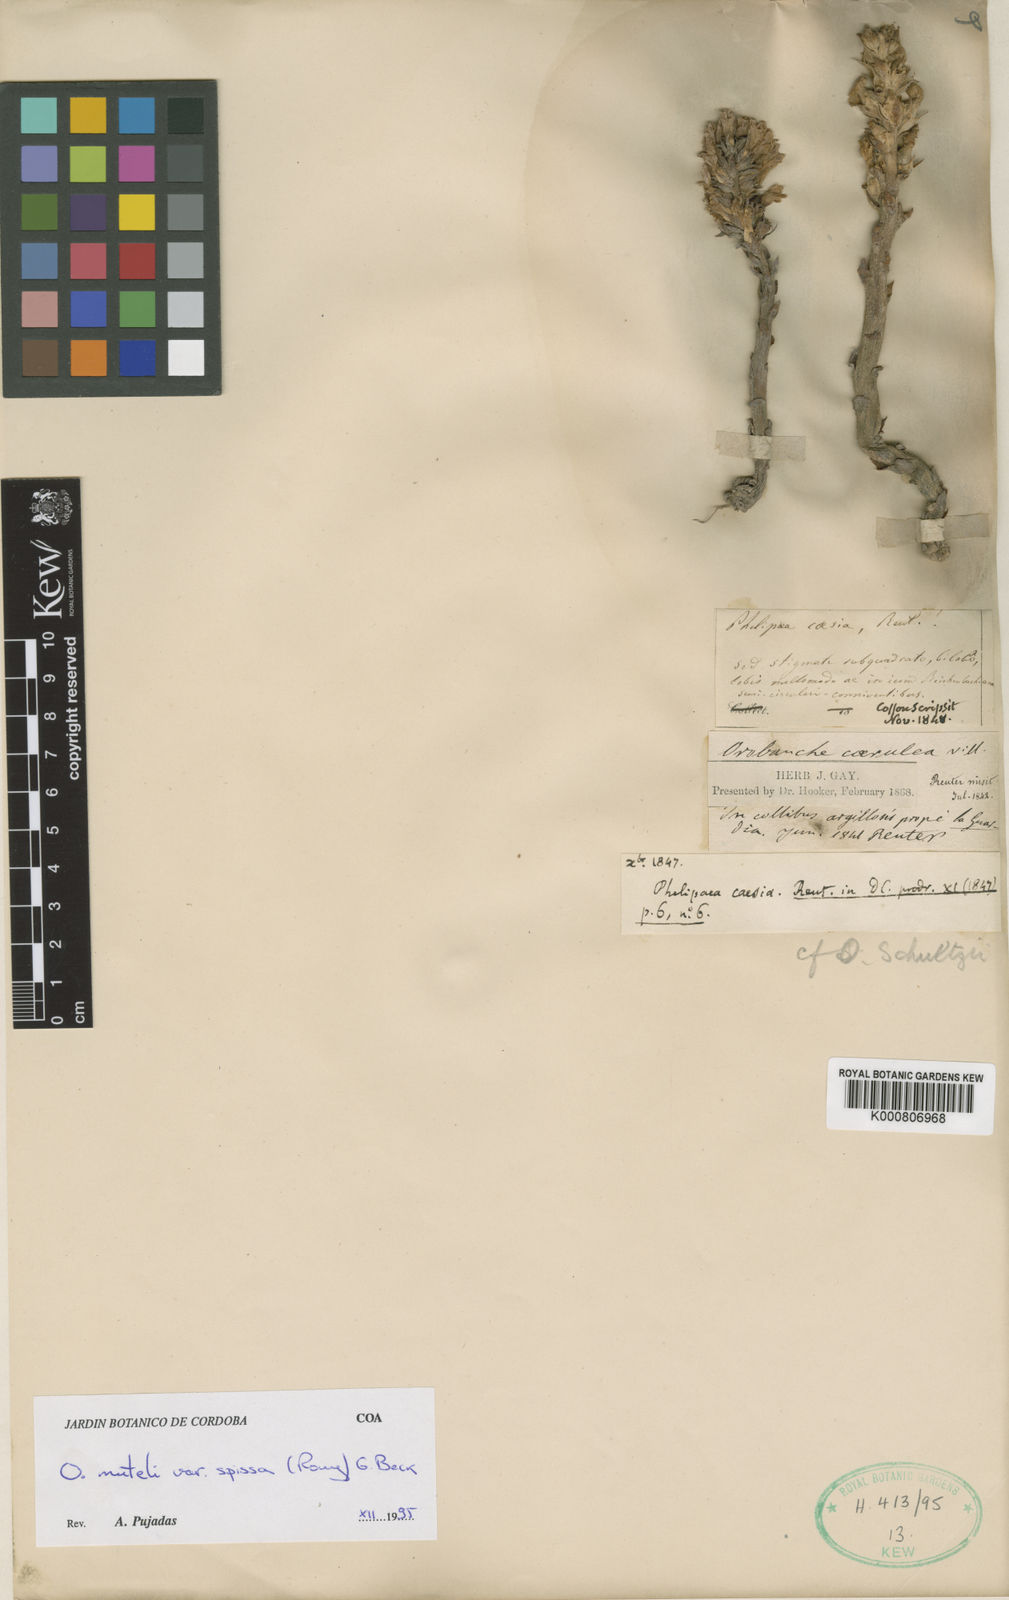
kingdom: Plantae
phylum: Tracheophyta
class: Magnoliopsida
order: Lamiales
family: Orobanchaceae
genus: Phelipanche
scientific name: Phelipanche mutelii
